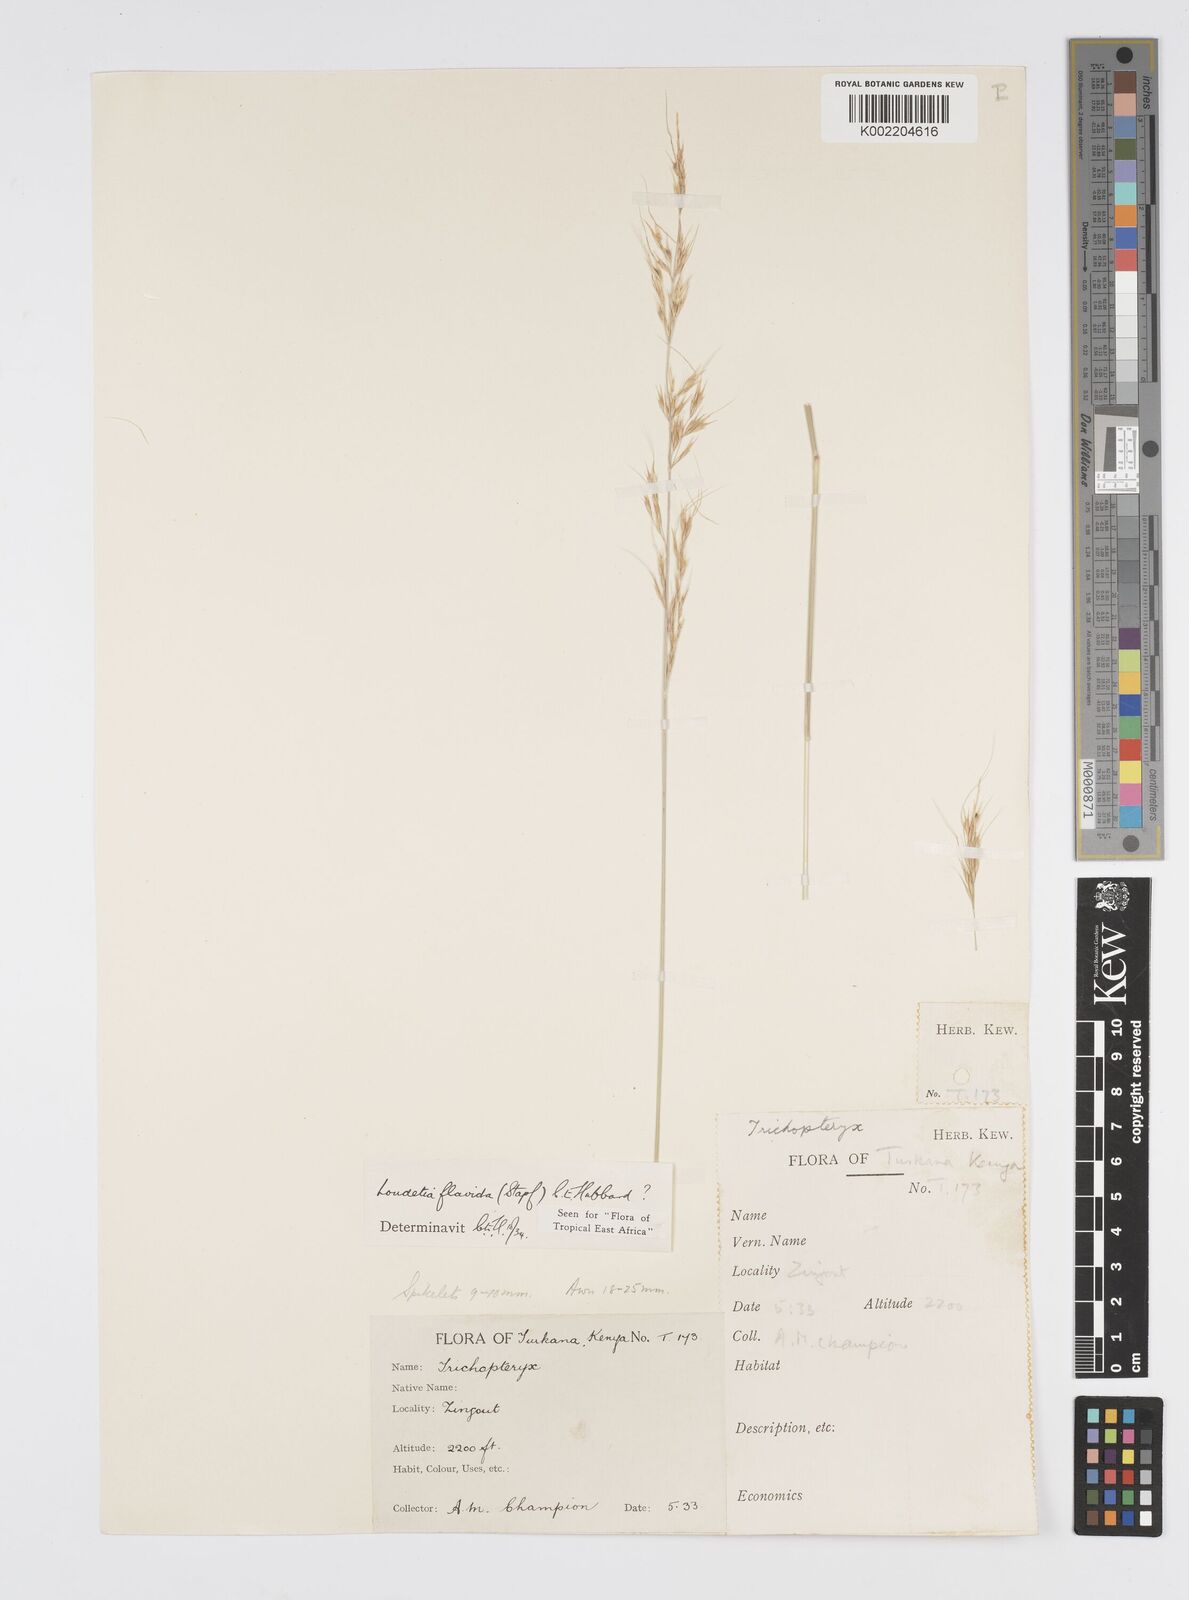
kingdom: Plantae
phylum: Tracheophyta
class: Liliopsida
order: Poales
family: Poaceae
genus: Loudetia
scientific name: Loudetia flavida
